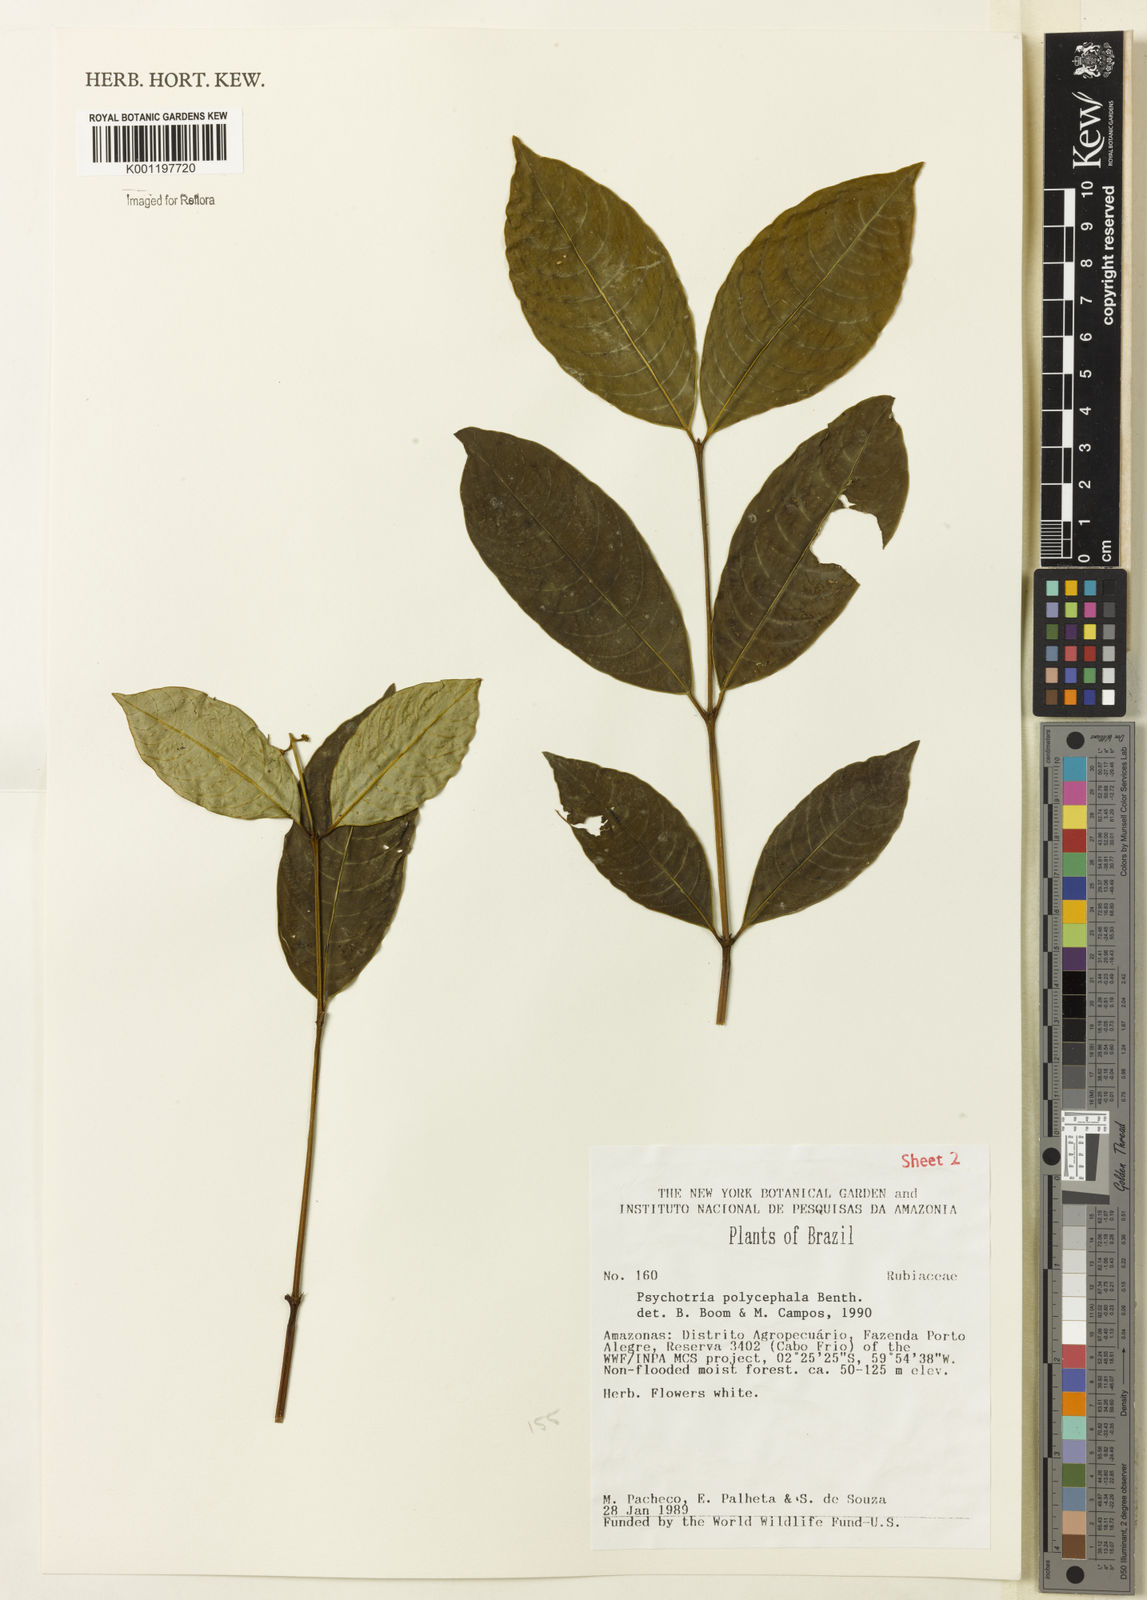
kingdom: Plantae
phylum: Tracheophyta
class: Magnoliopsida
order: Gentianales
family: Rubiaceae
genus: Palicourea
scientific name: Palicourea polycephala
